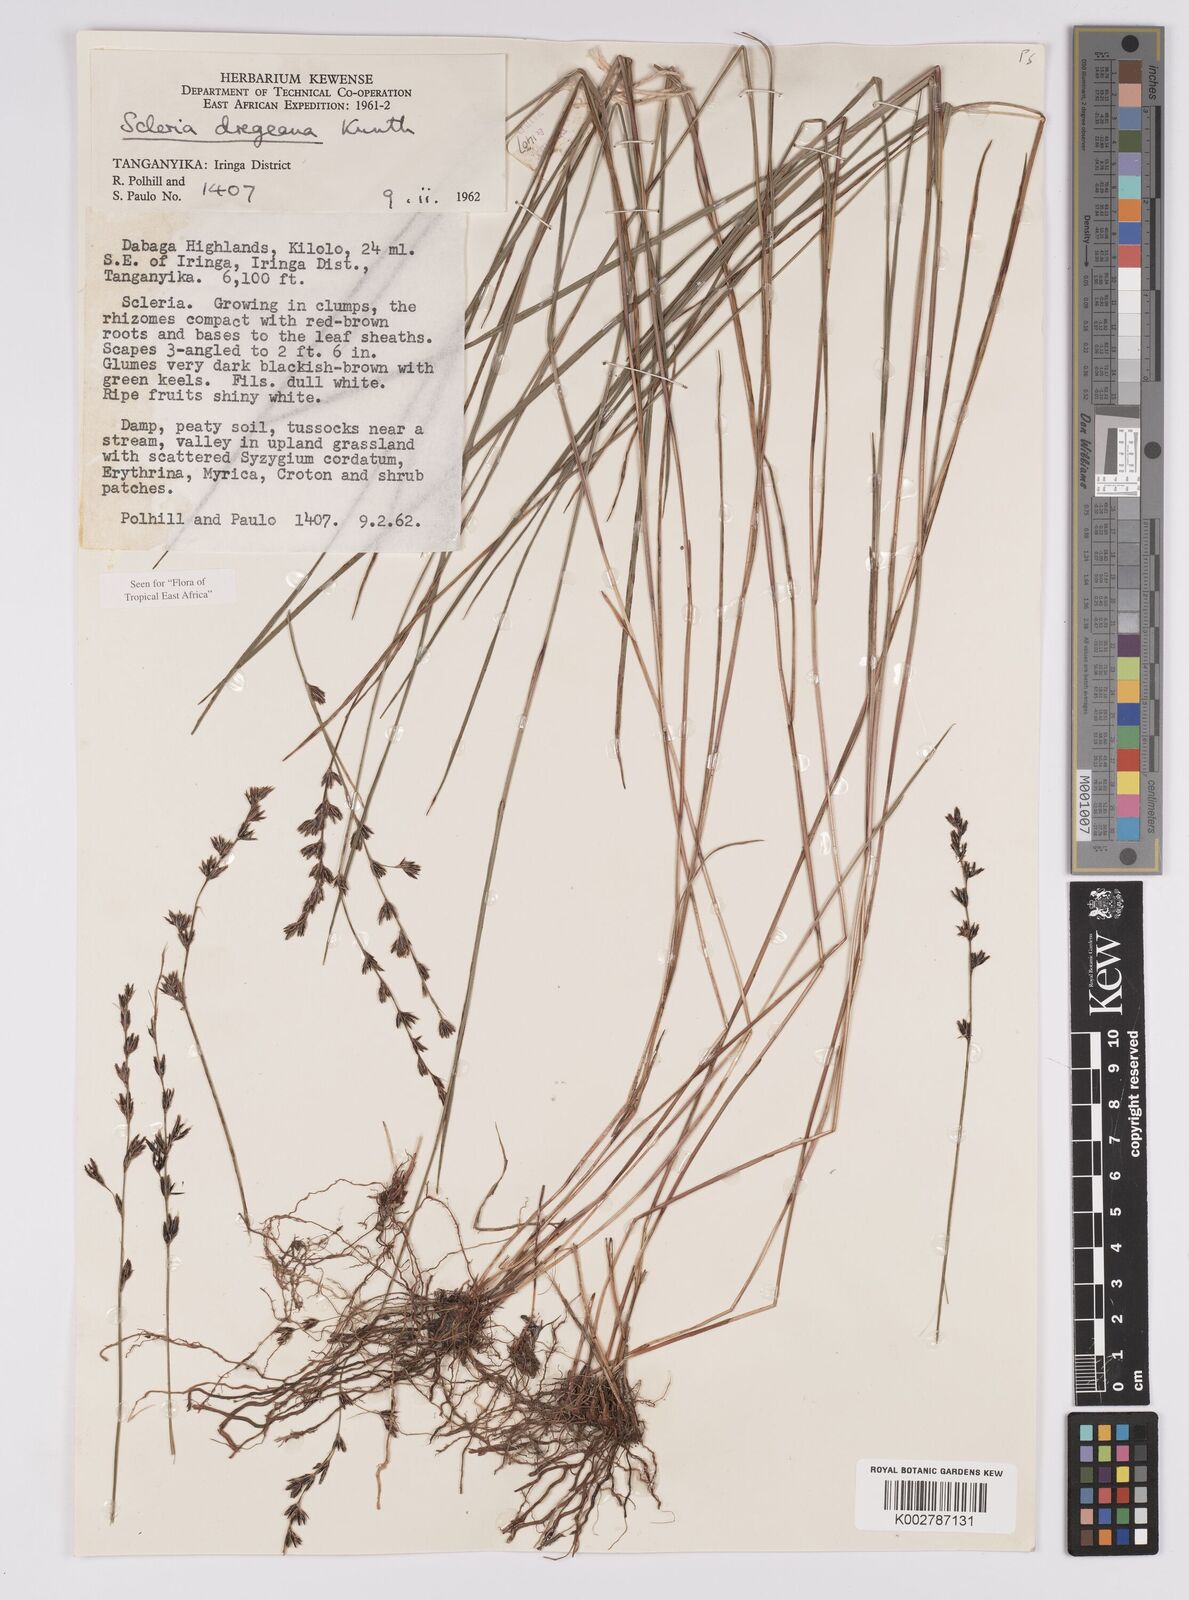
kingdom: Plantae
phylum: Tracheophyta
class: Liliopsida
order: Poales
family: Cyperaceae
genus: Scleria
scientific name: Scleria dregeana
